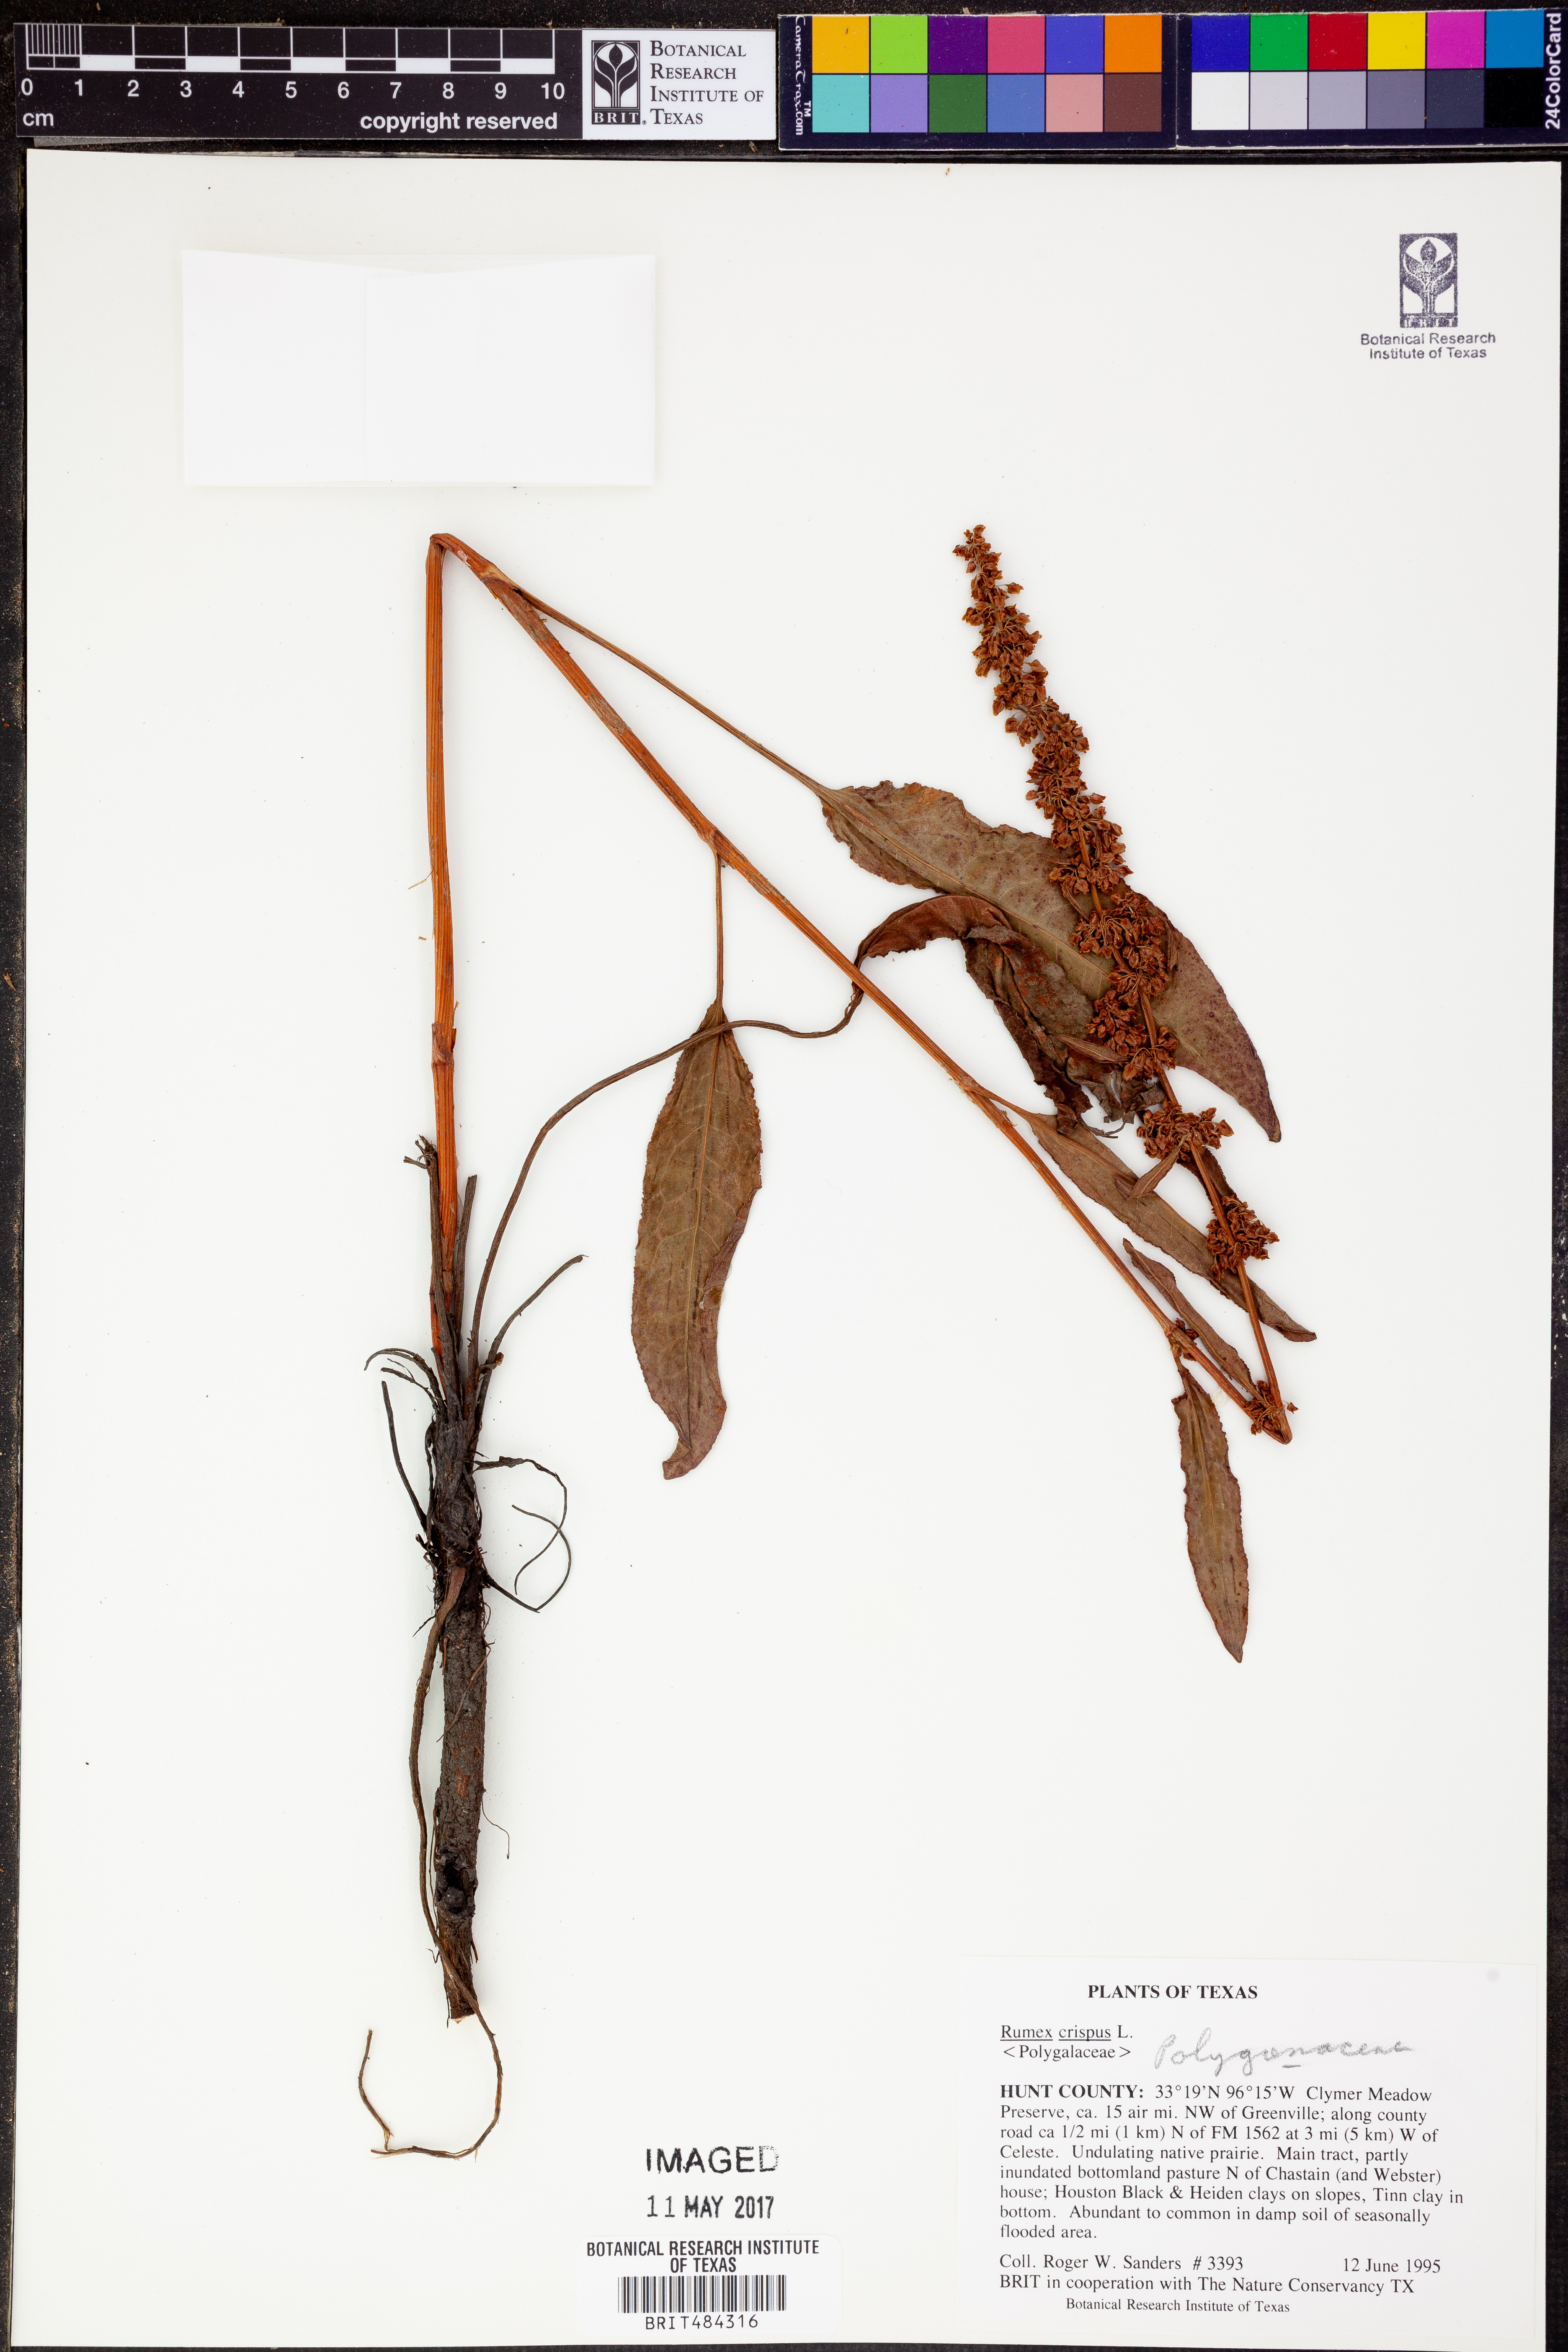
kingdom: Plantae
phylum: Tracheophyta
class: Magnoliopsida
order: Caryophyllales
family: Polygonaceae
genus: Rumex
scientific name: Rumex crispus
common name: Curled dock
